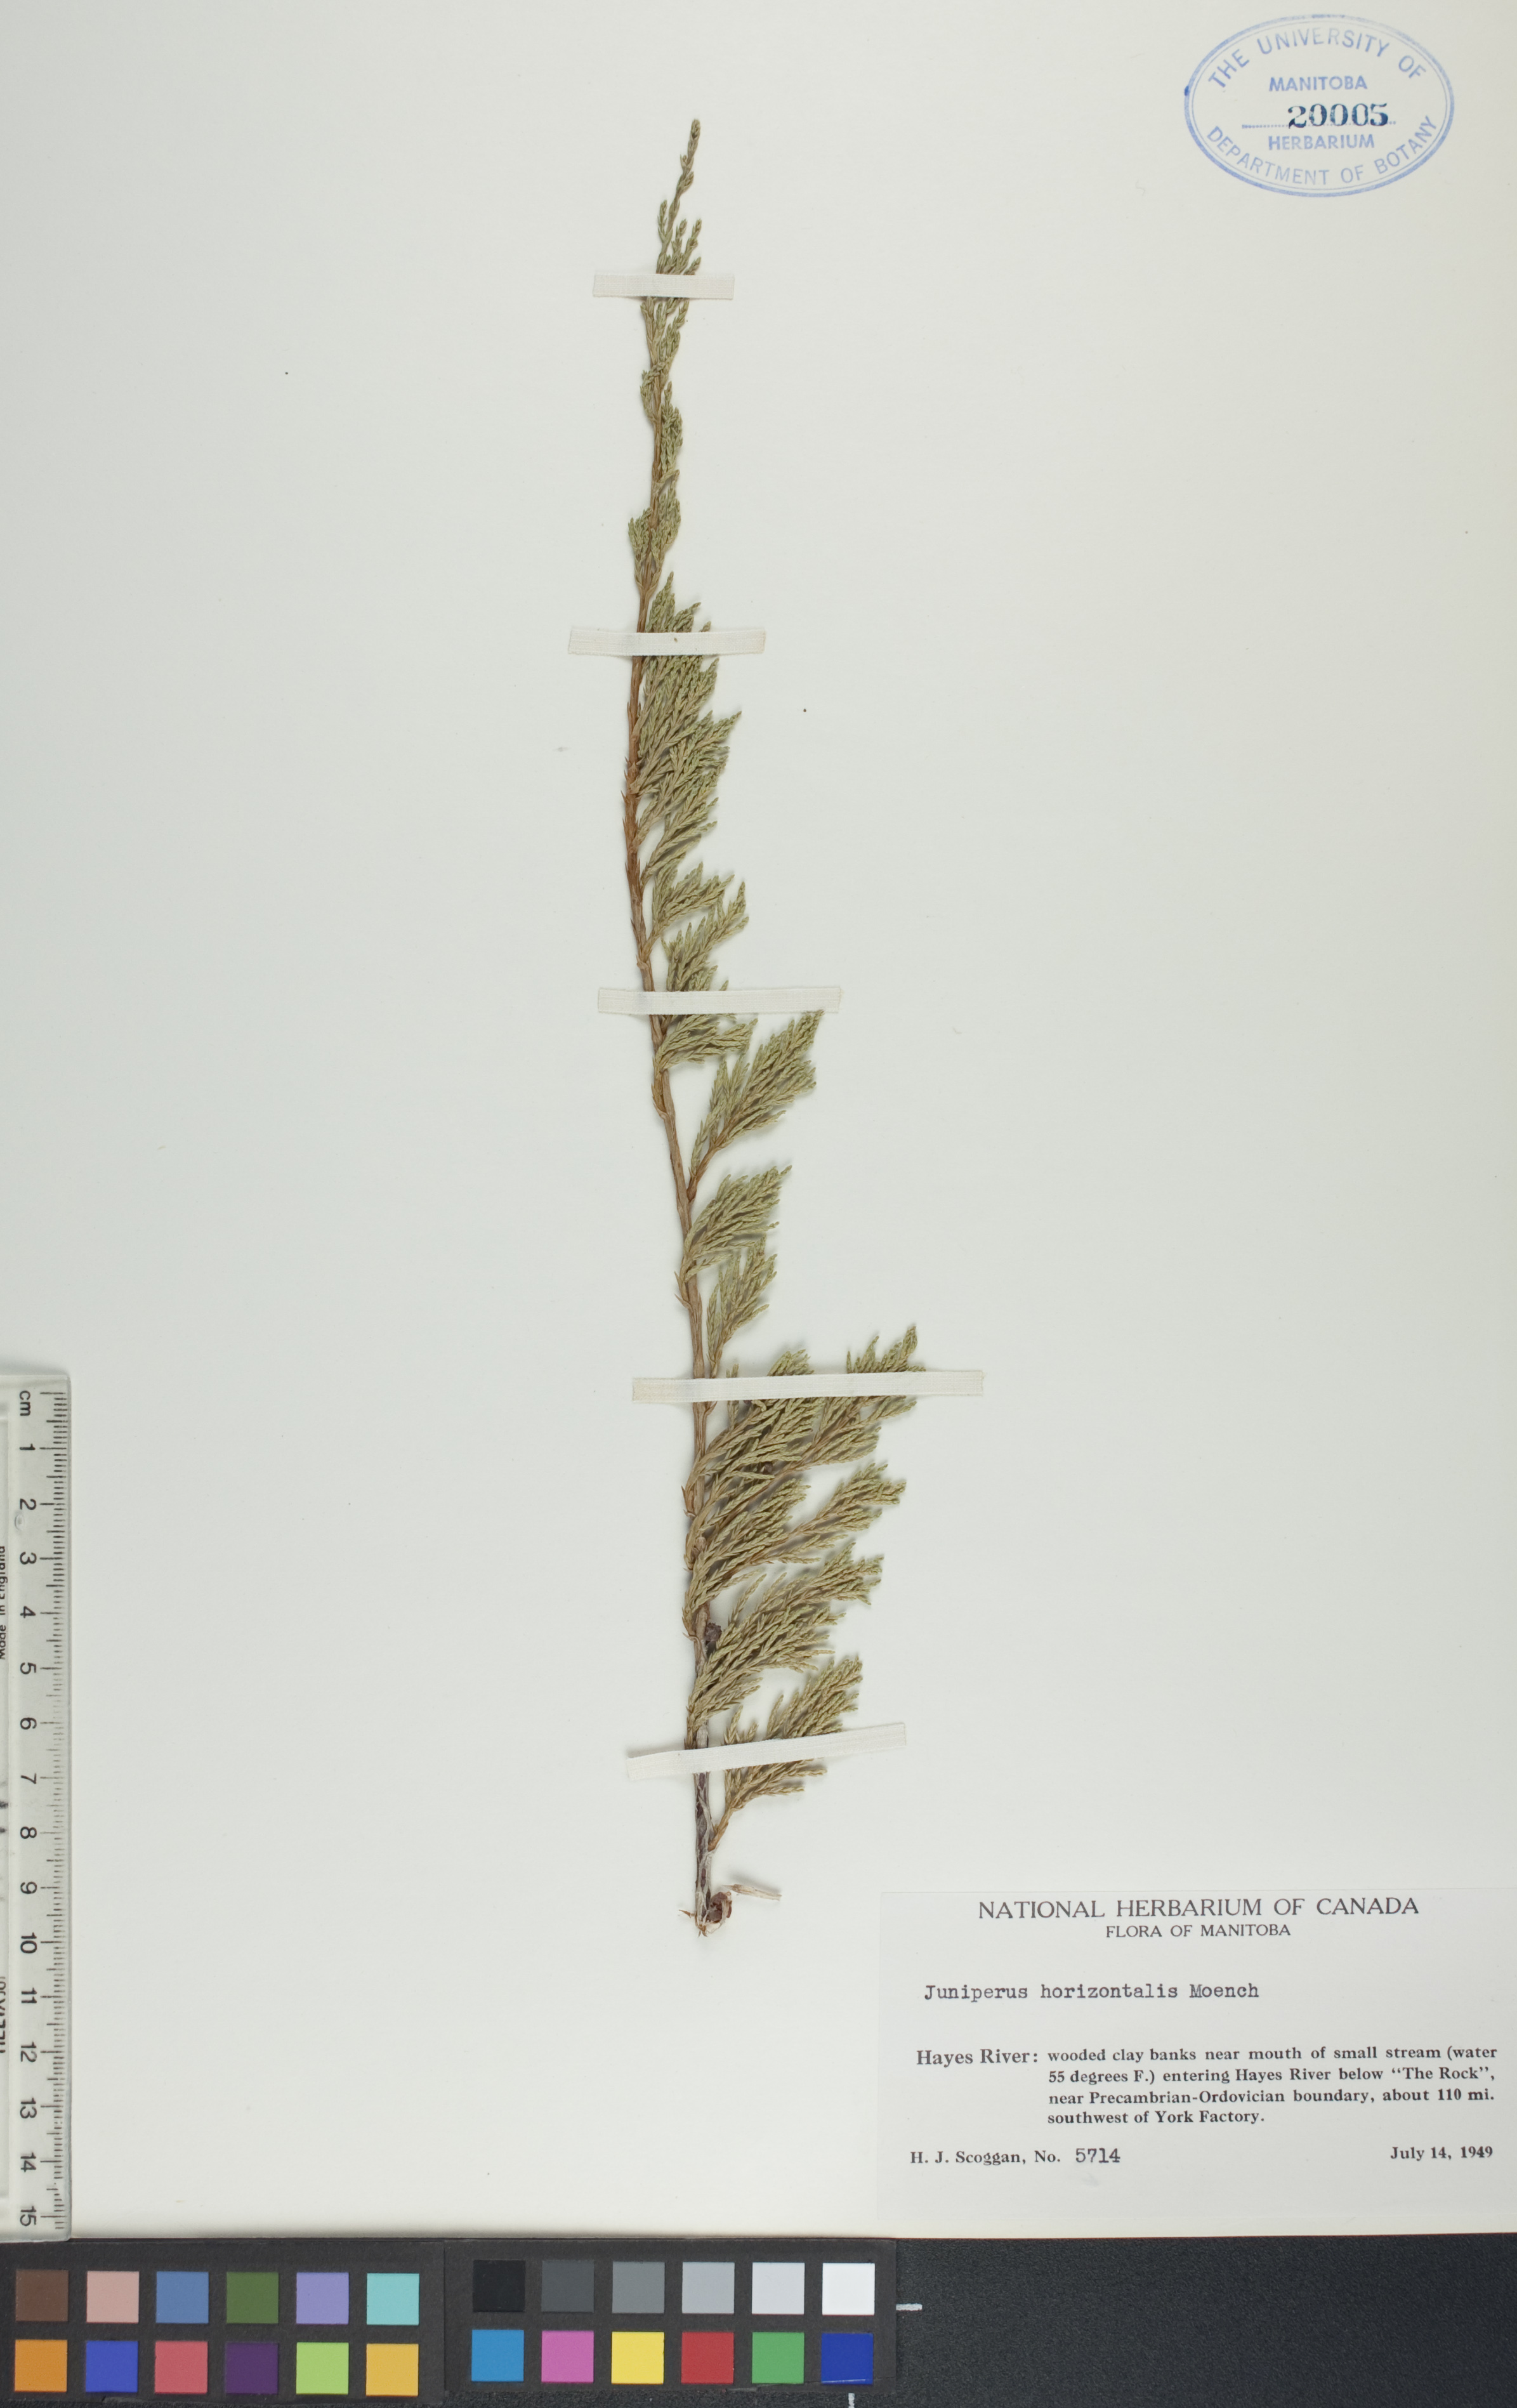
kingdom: Plantae
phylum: Tracheophyta
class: Pinopsida
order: Pinales
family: Cupressaceae
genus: Juniperus
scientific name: Juniperus horizontalis
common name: Creeping juniper
